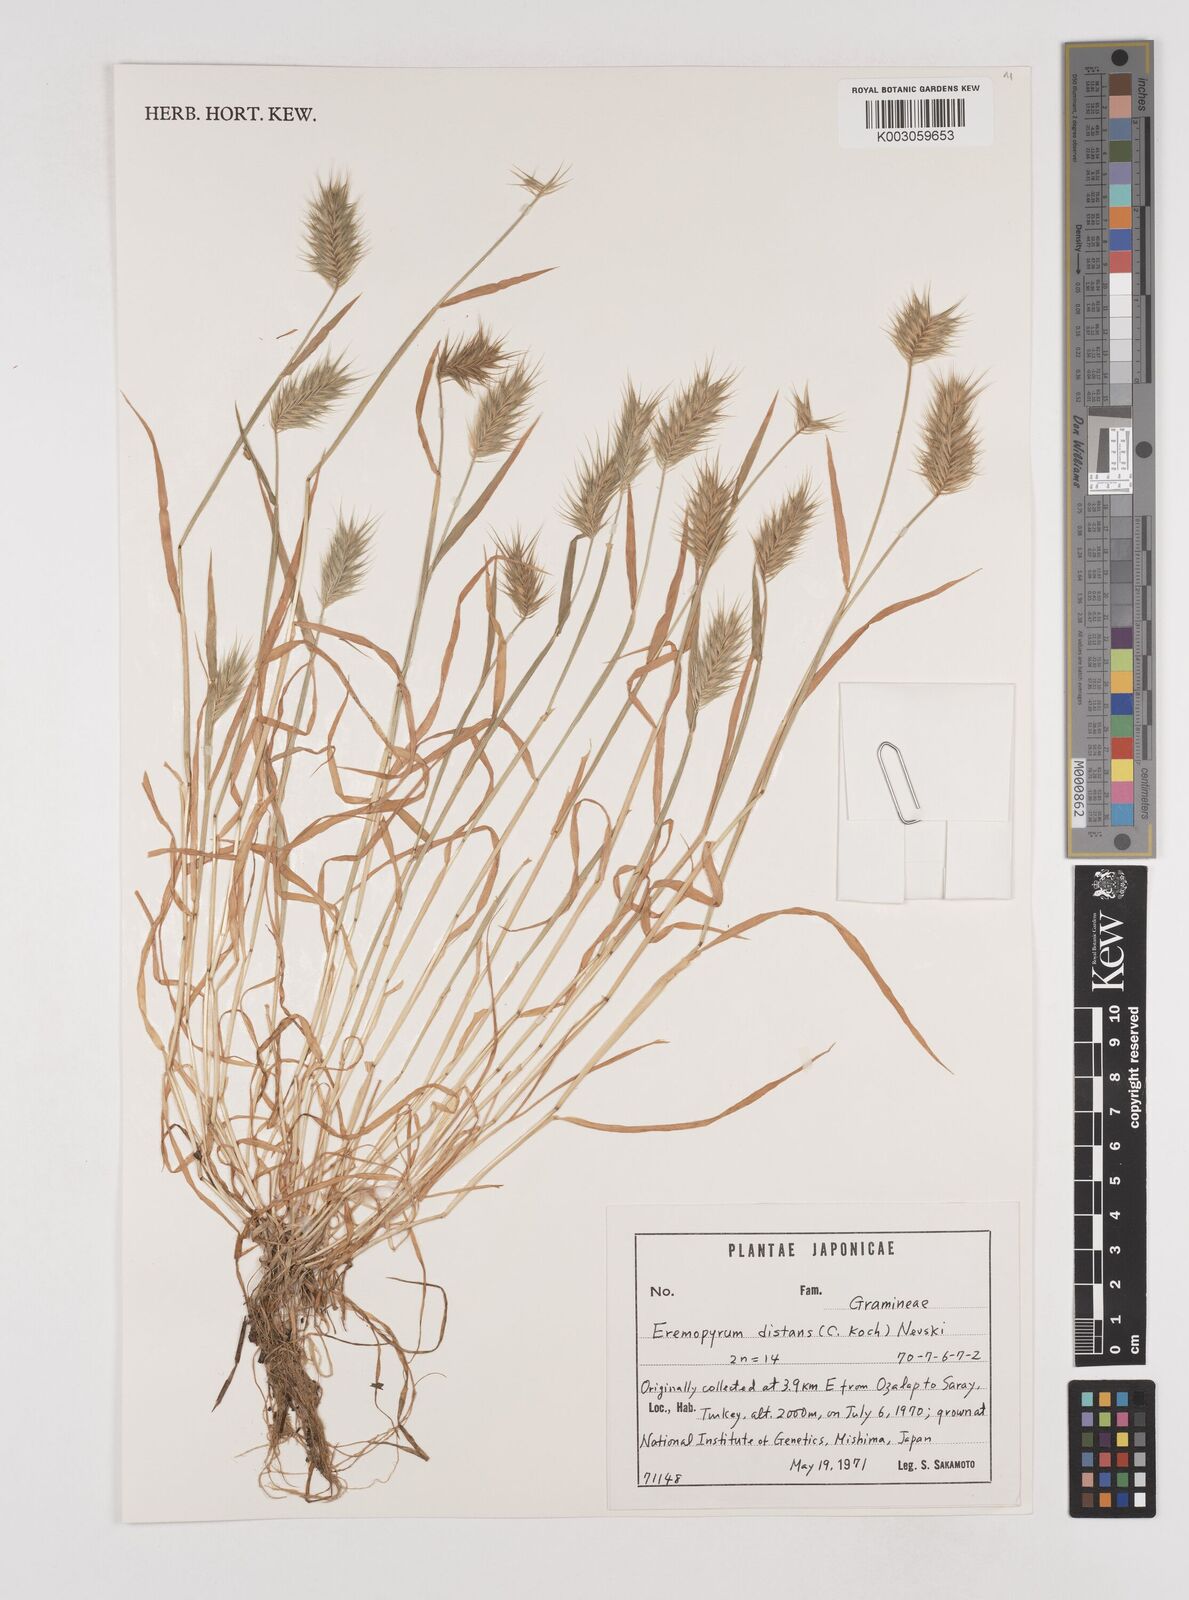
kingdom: Plantae
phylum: Tracheophyta
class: Liliopsida
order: Poales
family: Poaceae
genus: Eremopyrum
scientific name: Eremopyrum distans
